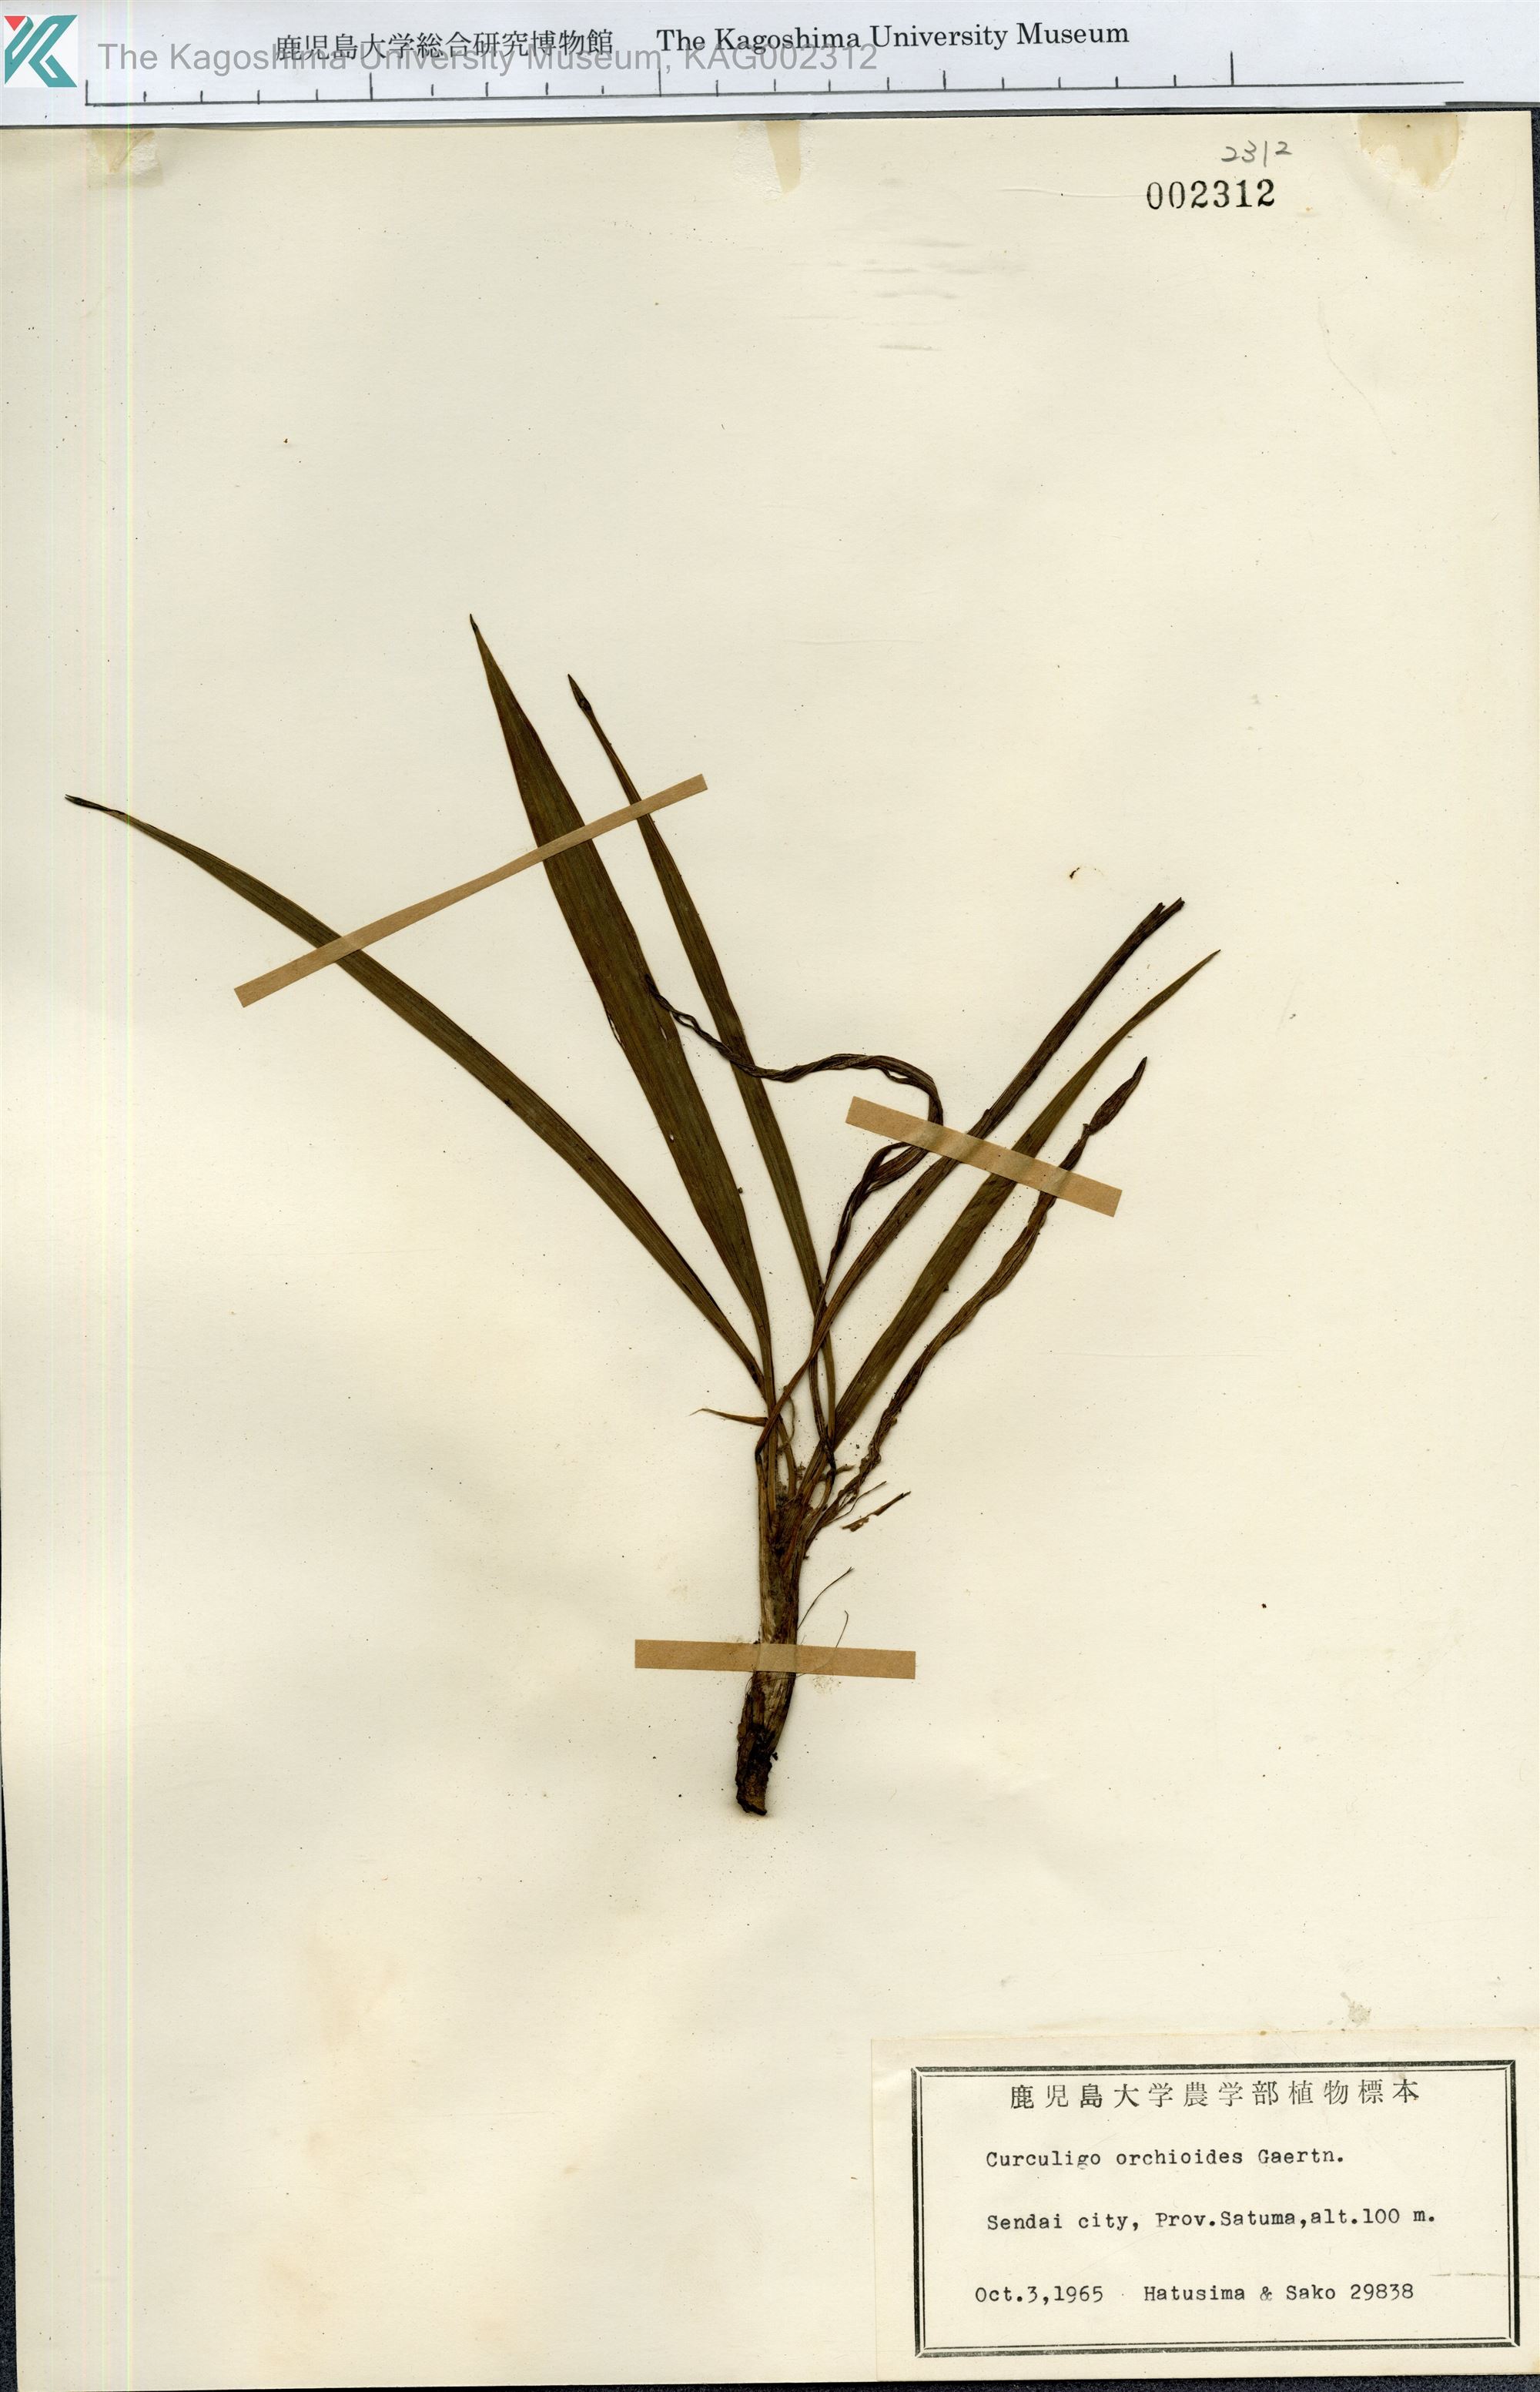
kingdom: Plantae
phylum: Tracheophyta
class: Liliopsida
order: Asparagales
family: Hypoxidaceae
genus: Curculigo
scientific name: Curculigo orchioides
